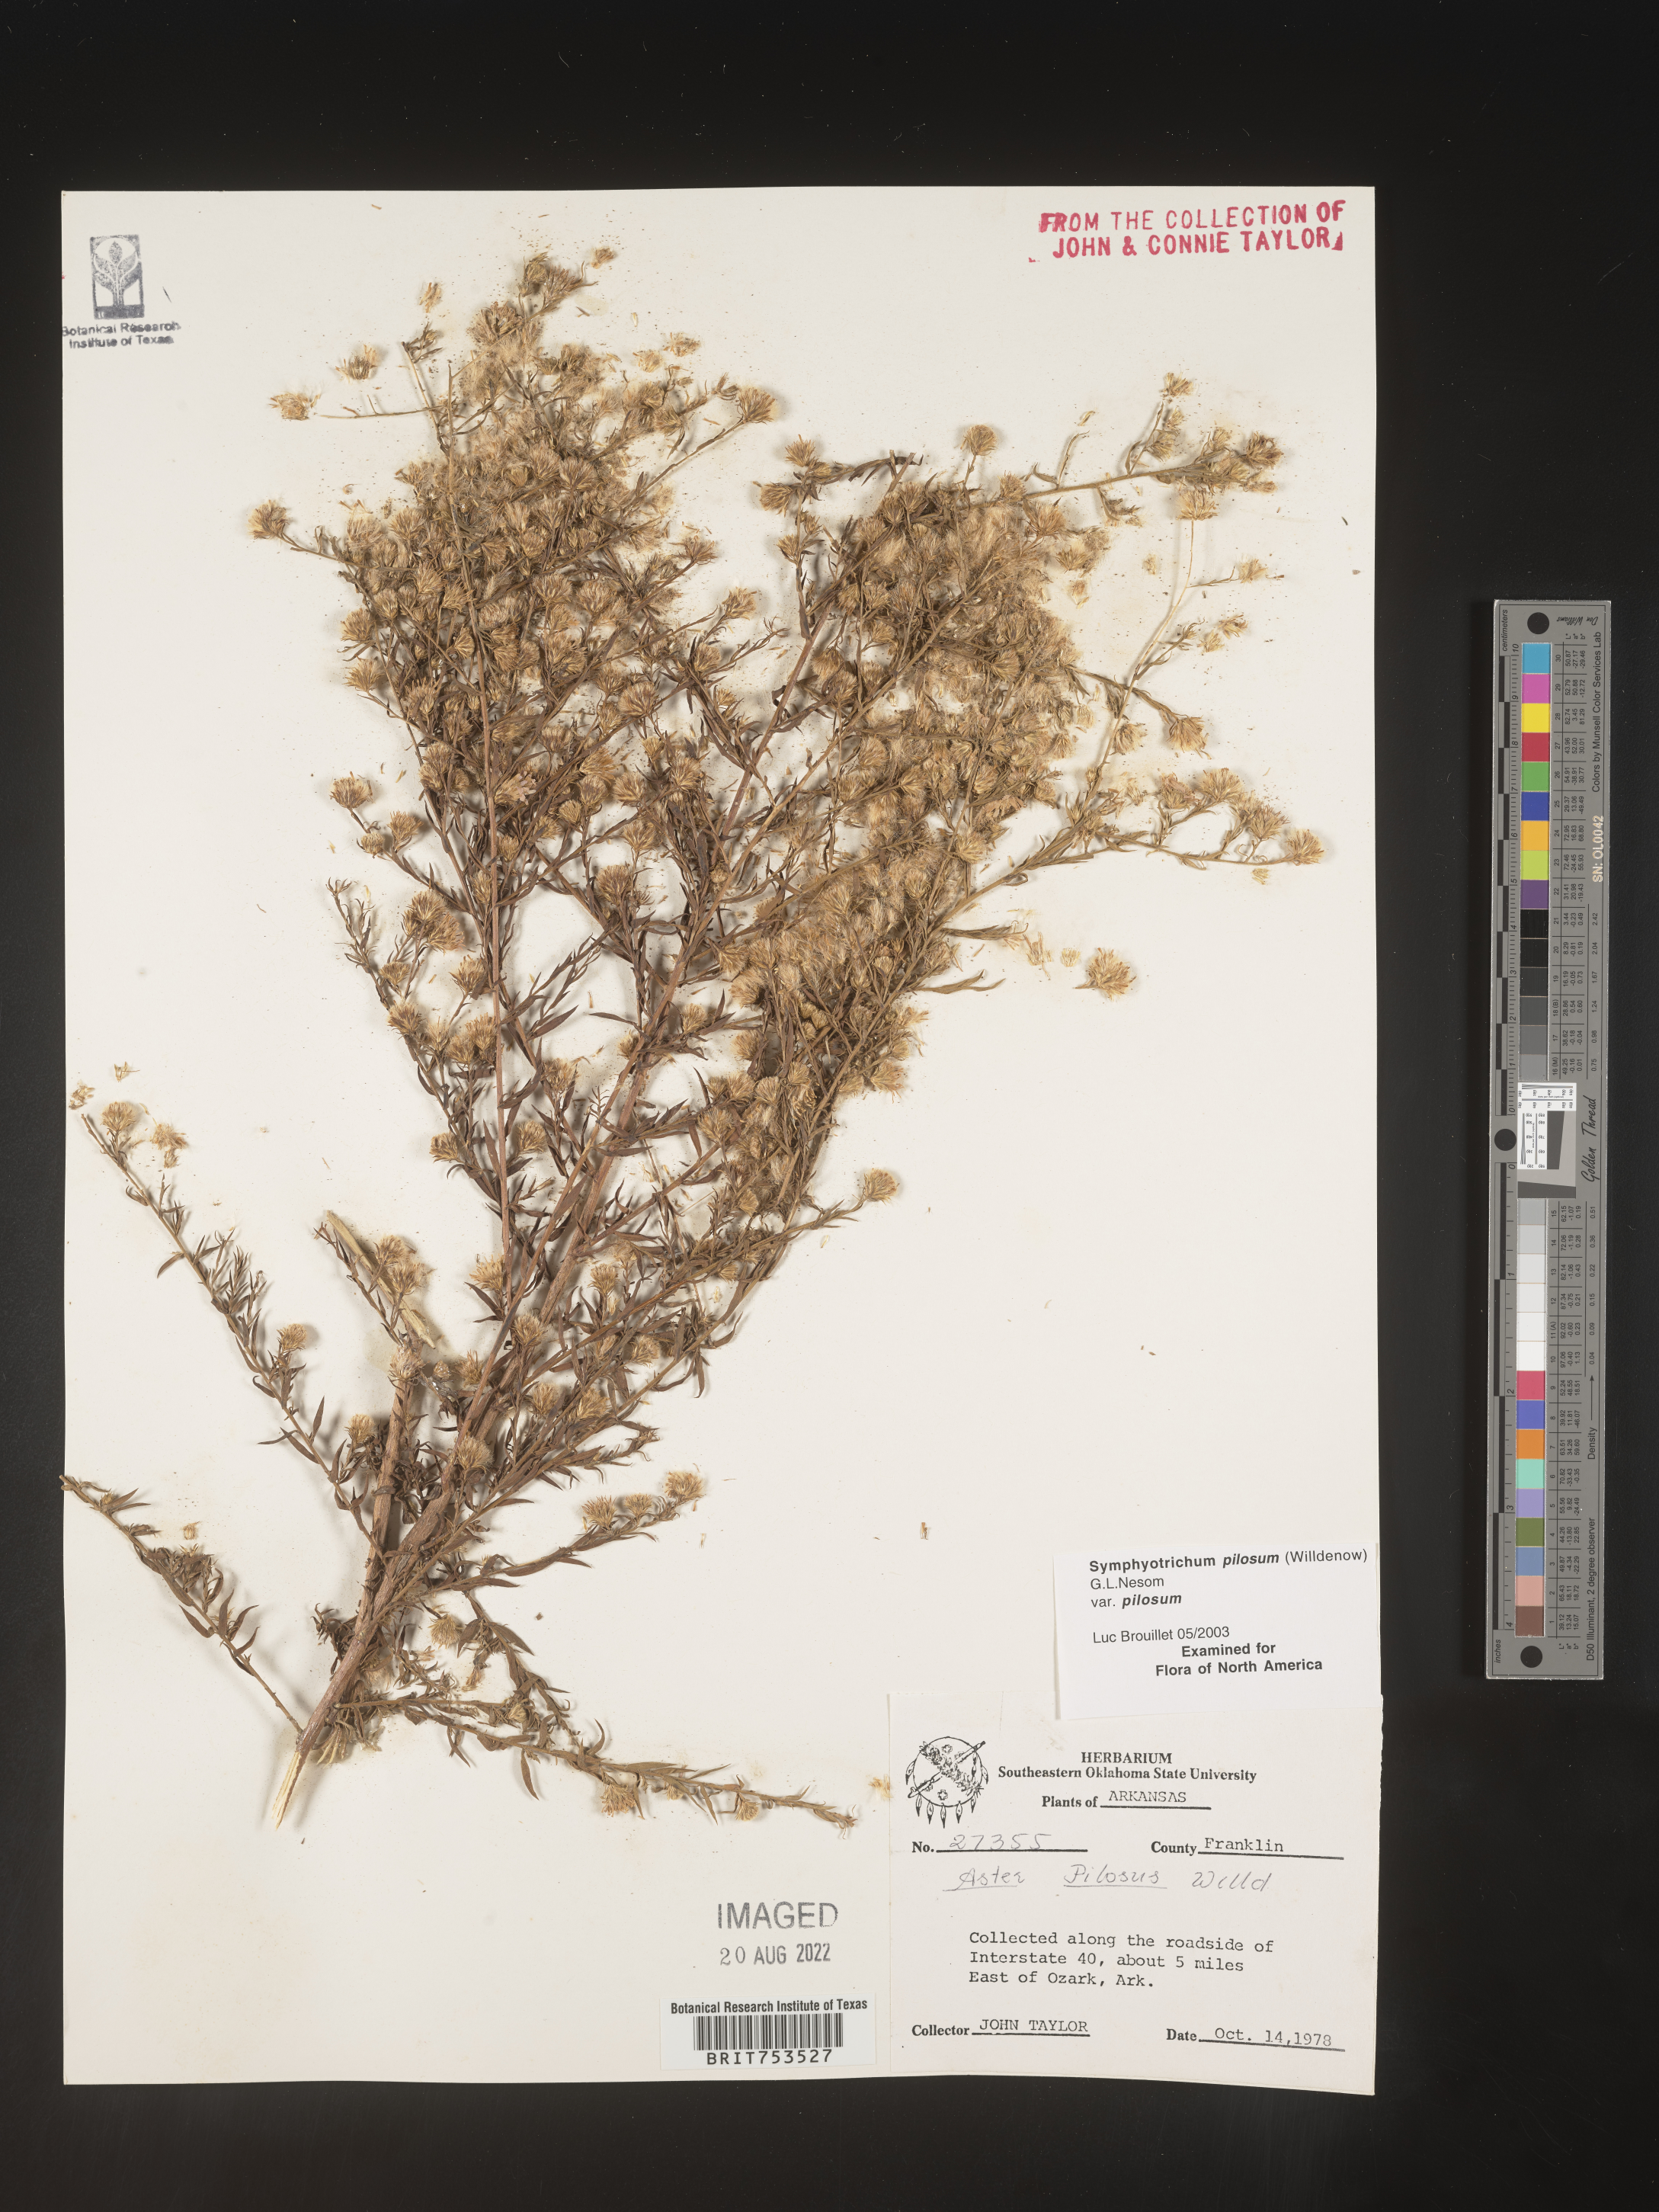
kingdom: Plantae
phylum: Tracheophyta
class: Magnoliopsida
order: Asterales
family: Asteraceae
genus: Symphyotrichum
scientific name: Symphyotrichum pilosum
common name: Awl aster
